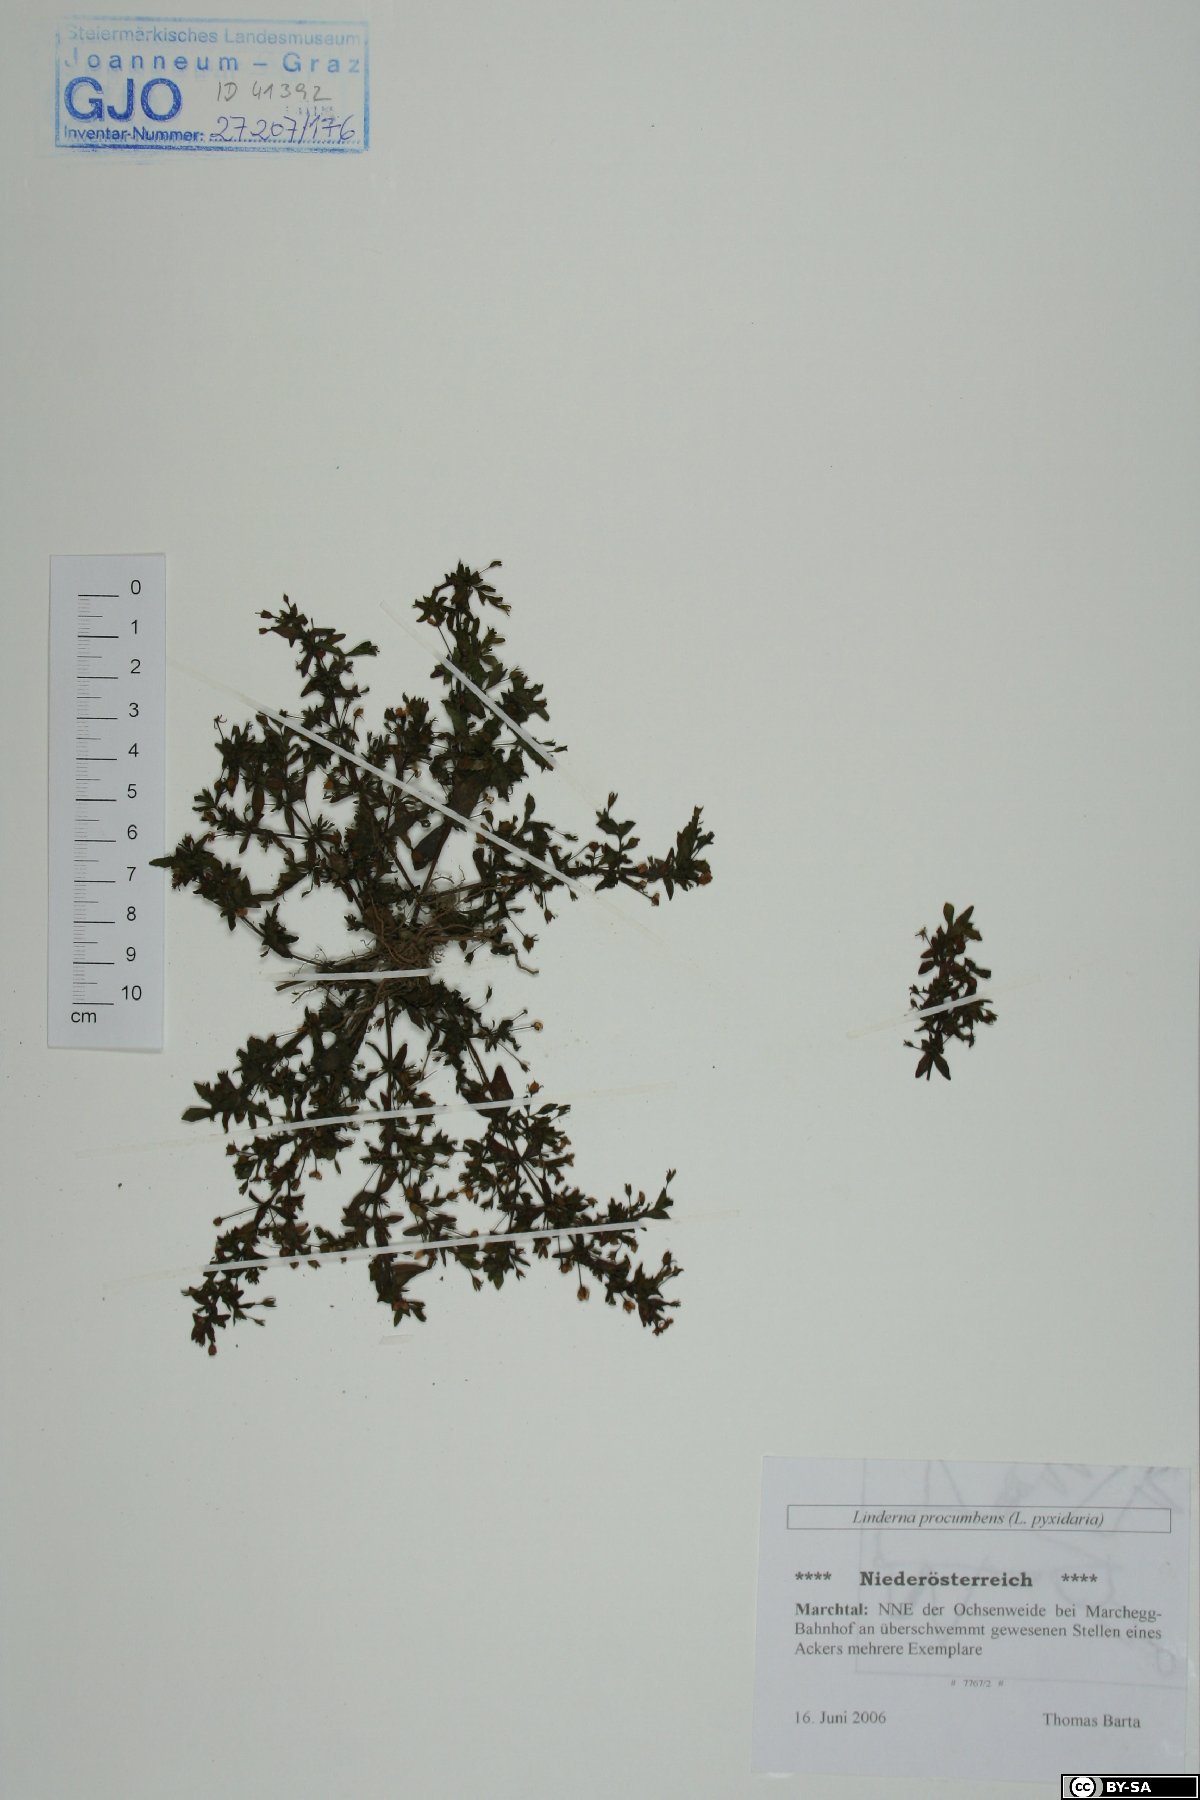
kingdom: Plantae
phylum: Tracheophyta
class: Magnoliopsida
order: Lamiales
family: Linderniaceae
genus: Lindernia
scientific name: Lindernia procumbens
